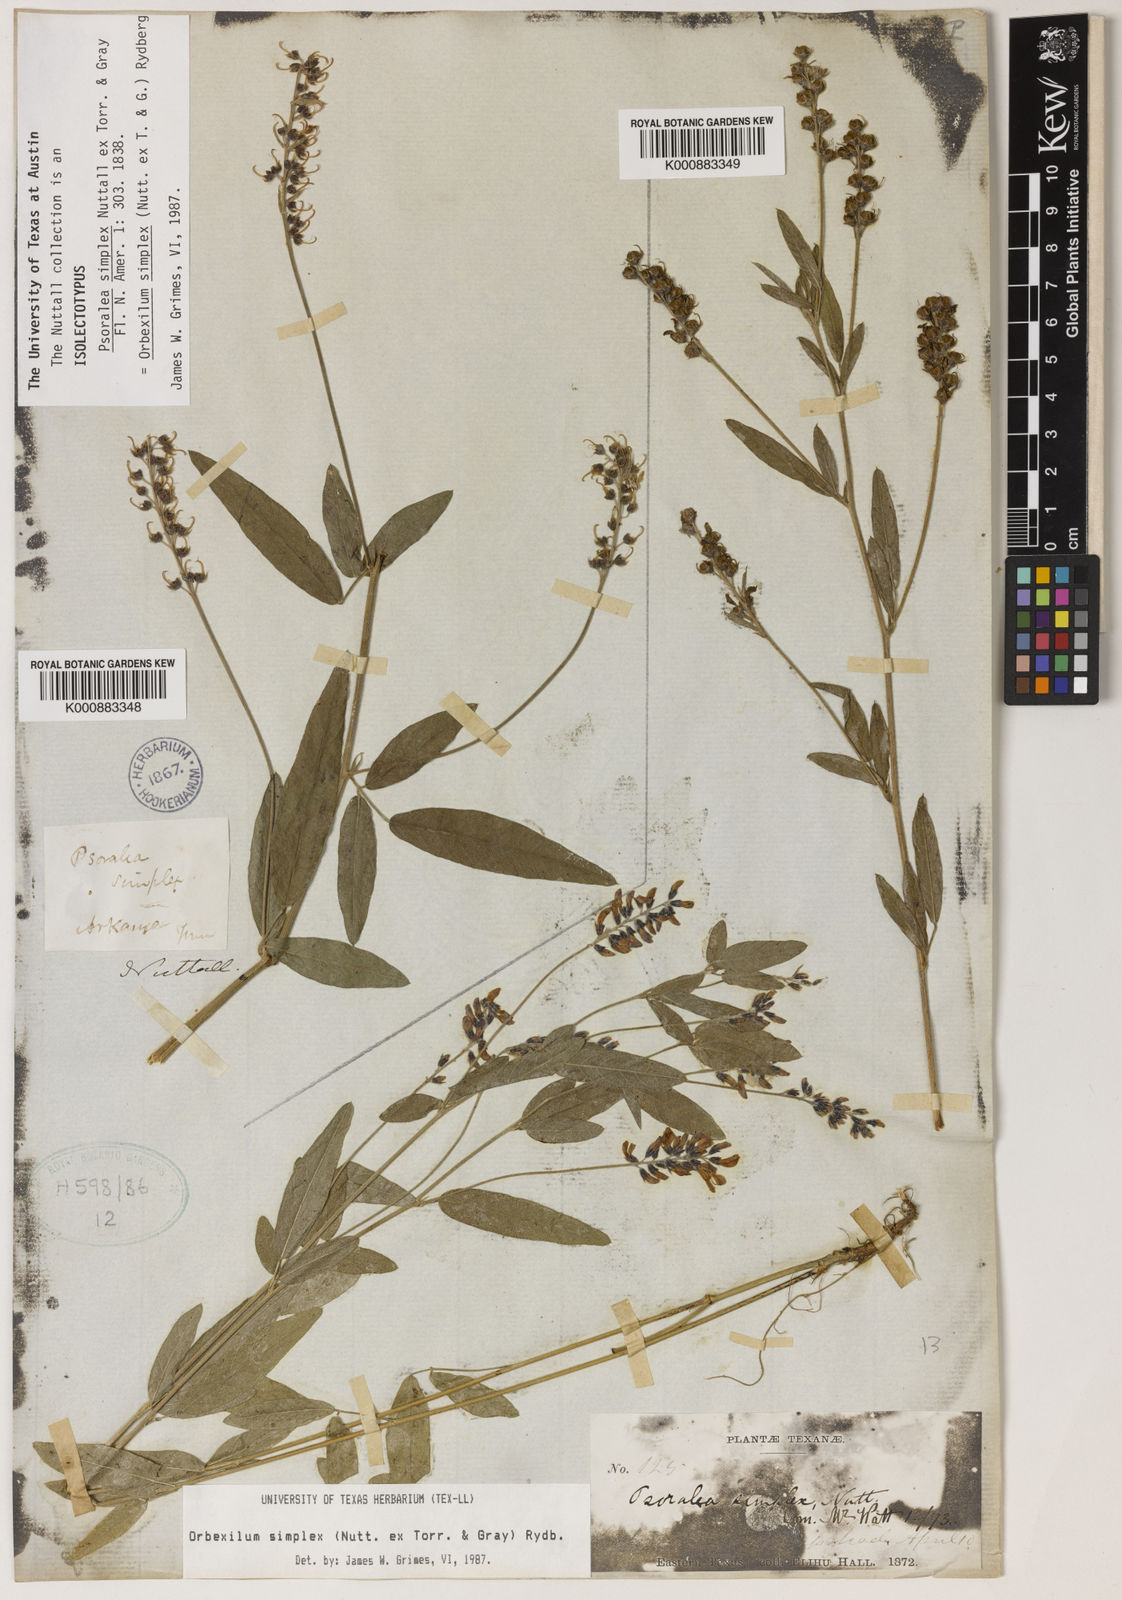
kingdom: Plantae
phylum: Tracheophyta
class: Magnoliopsida
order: Fabales
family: Fabaceae
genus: Orbexilum
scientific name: Orbexilum simplex
